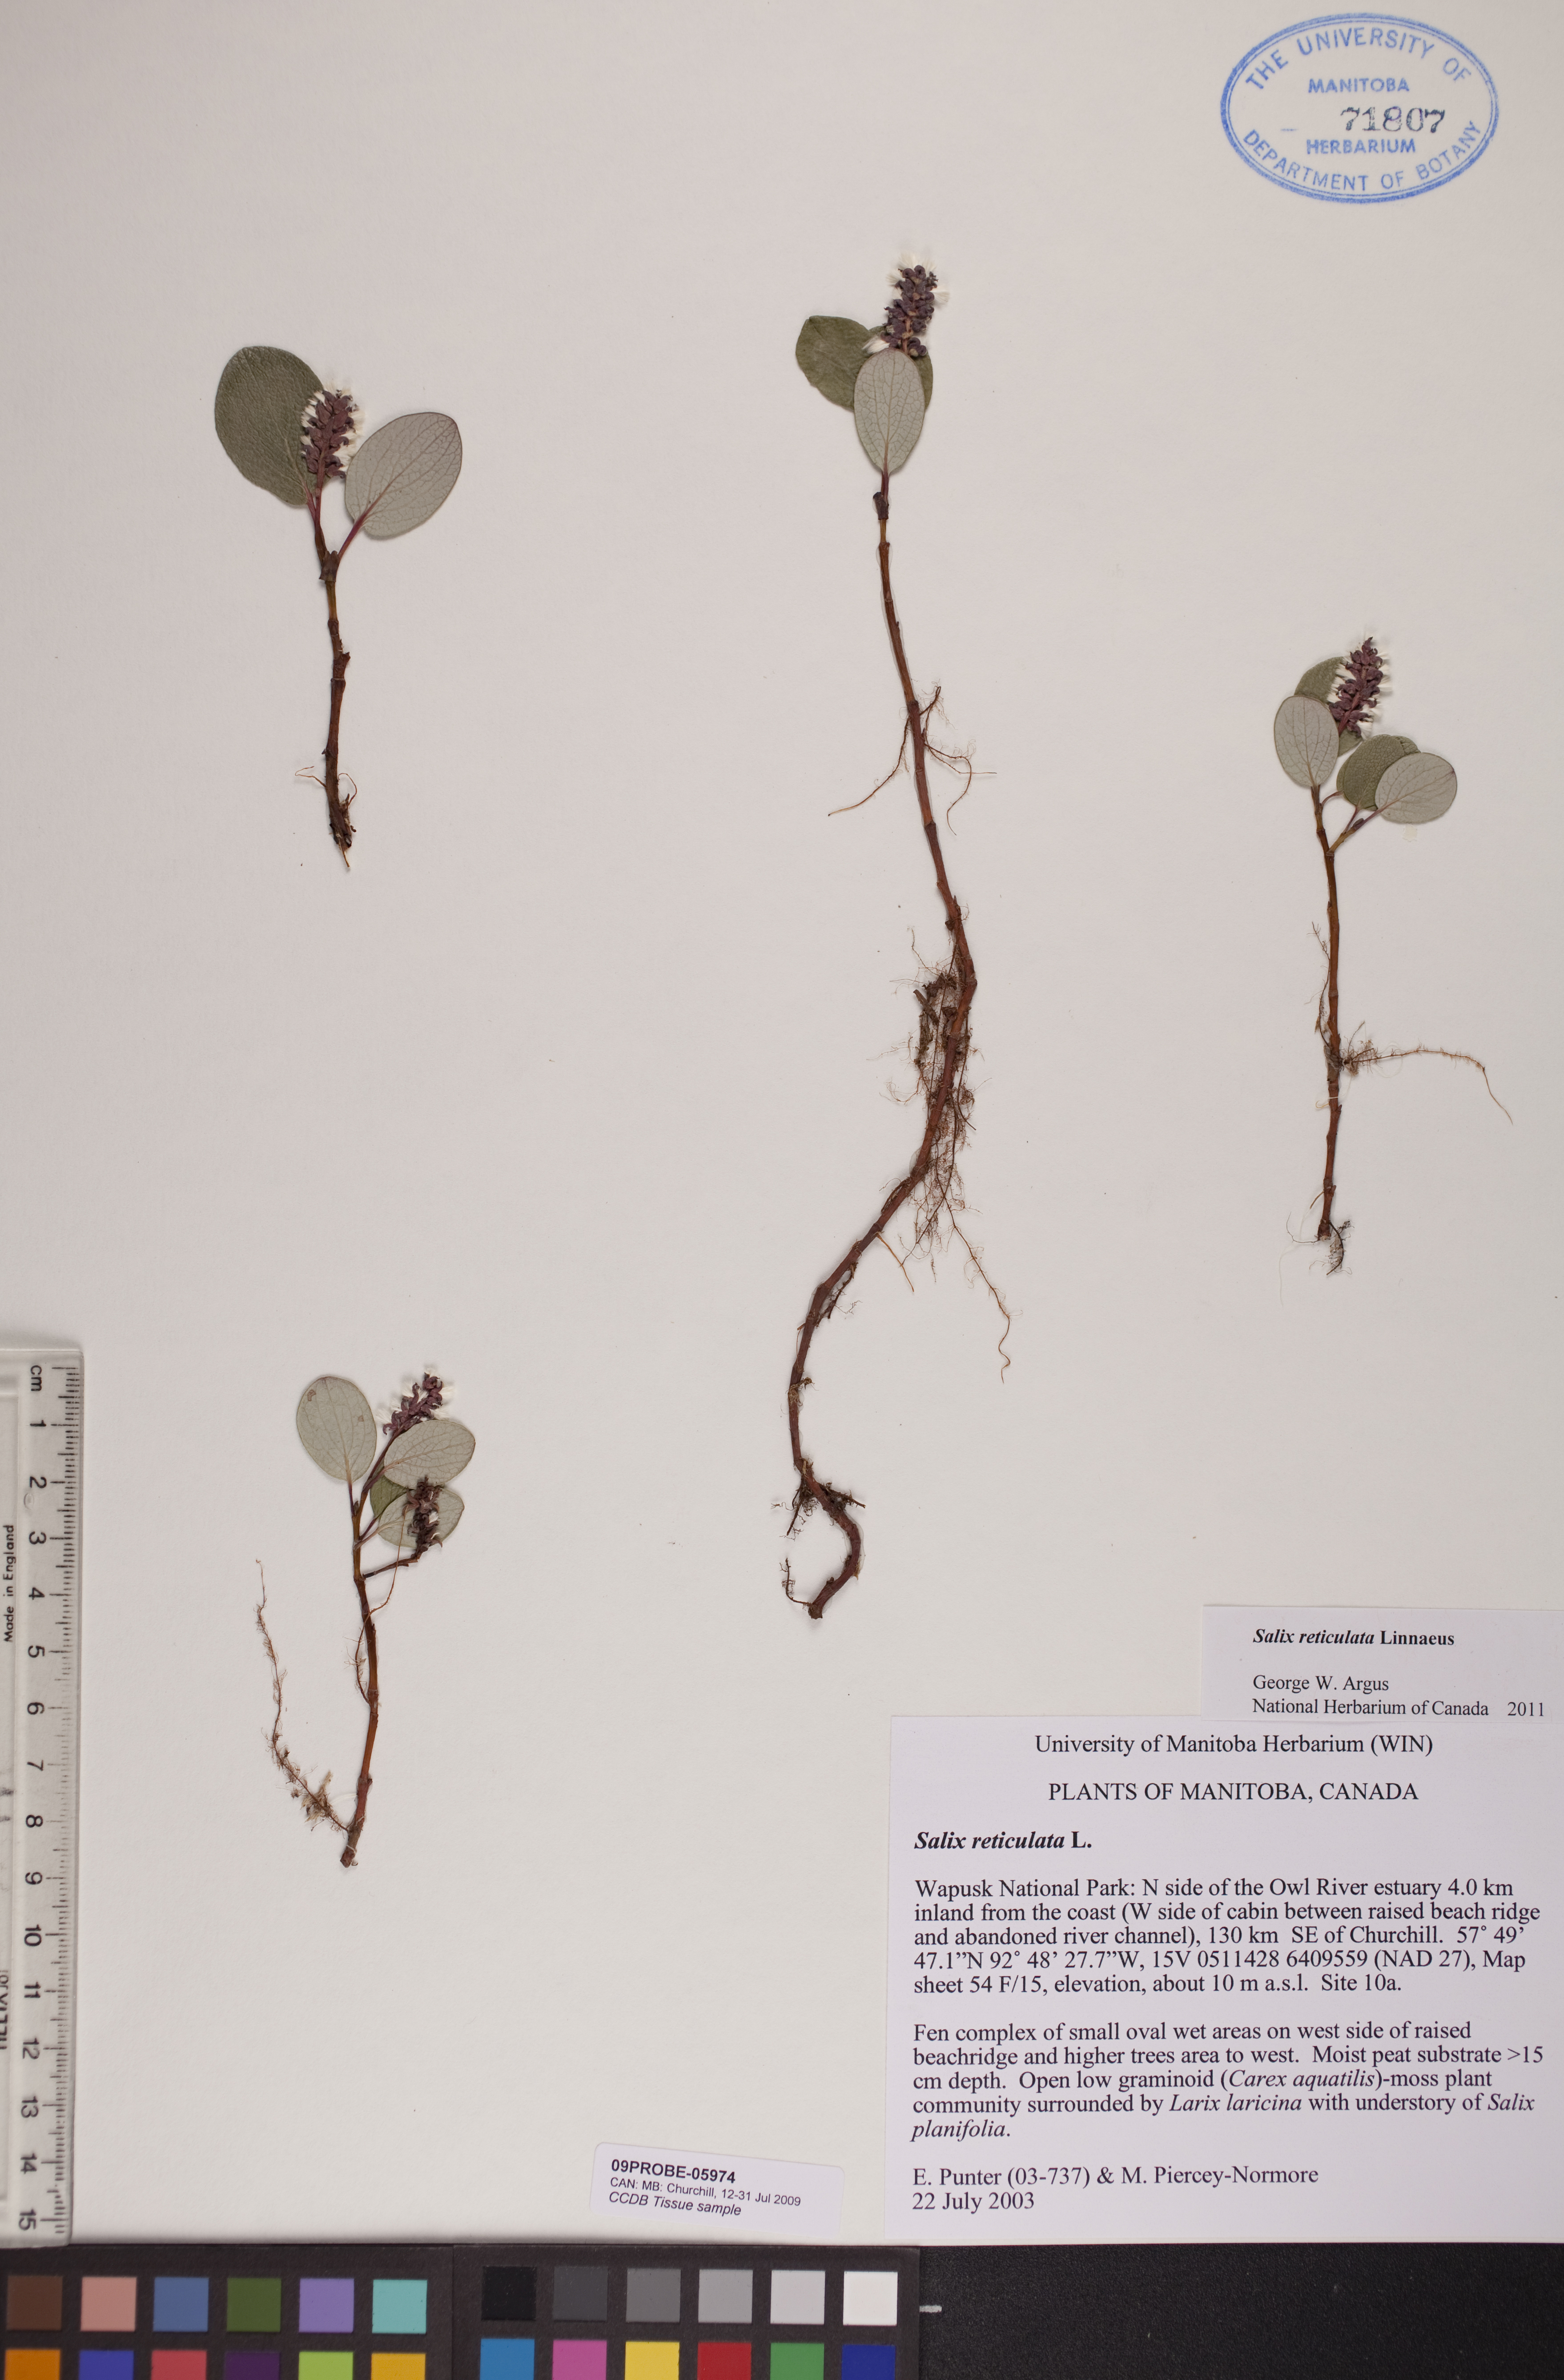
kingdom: Plantae
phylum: Tracheophyta
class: Magnoliopsida
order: Malpighiales
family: Salicaceae
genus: Salix
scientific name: Salix reticulata
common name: Net-leaved willow
